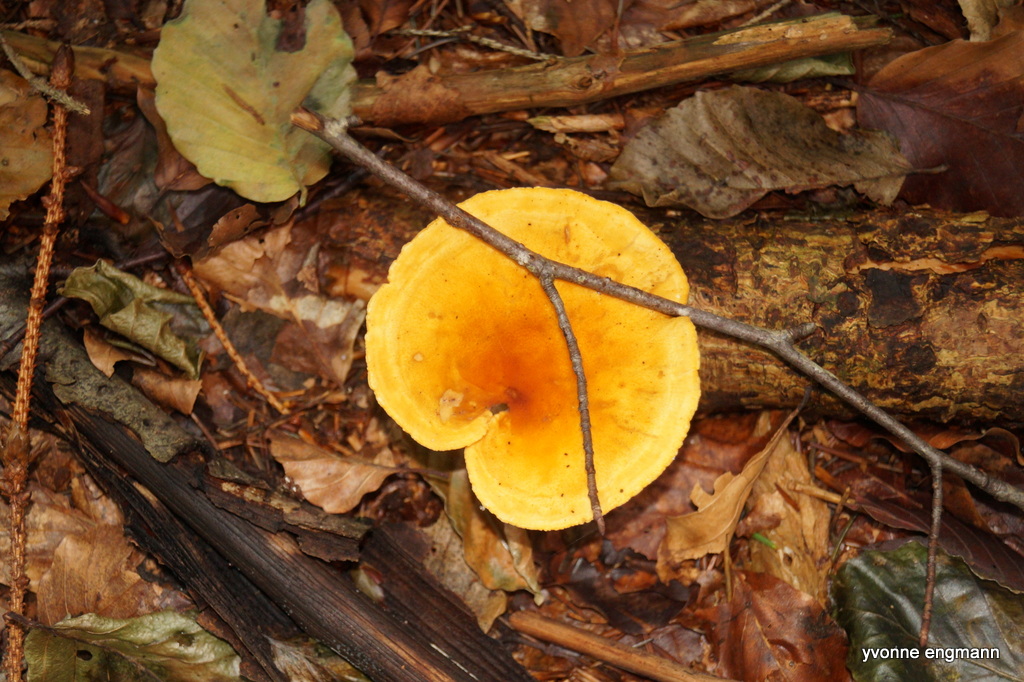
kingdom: Fungi
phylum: Basidiomycota
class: Agaricomycetes
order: Boletales
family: Hygrophoropsidaceae
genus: Hygrophoropsis
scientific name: Hygrophoropsis aurantiaca
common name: almindelig orangekantarel
